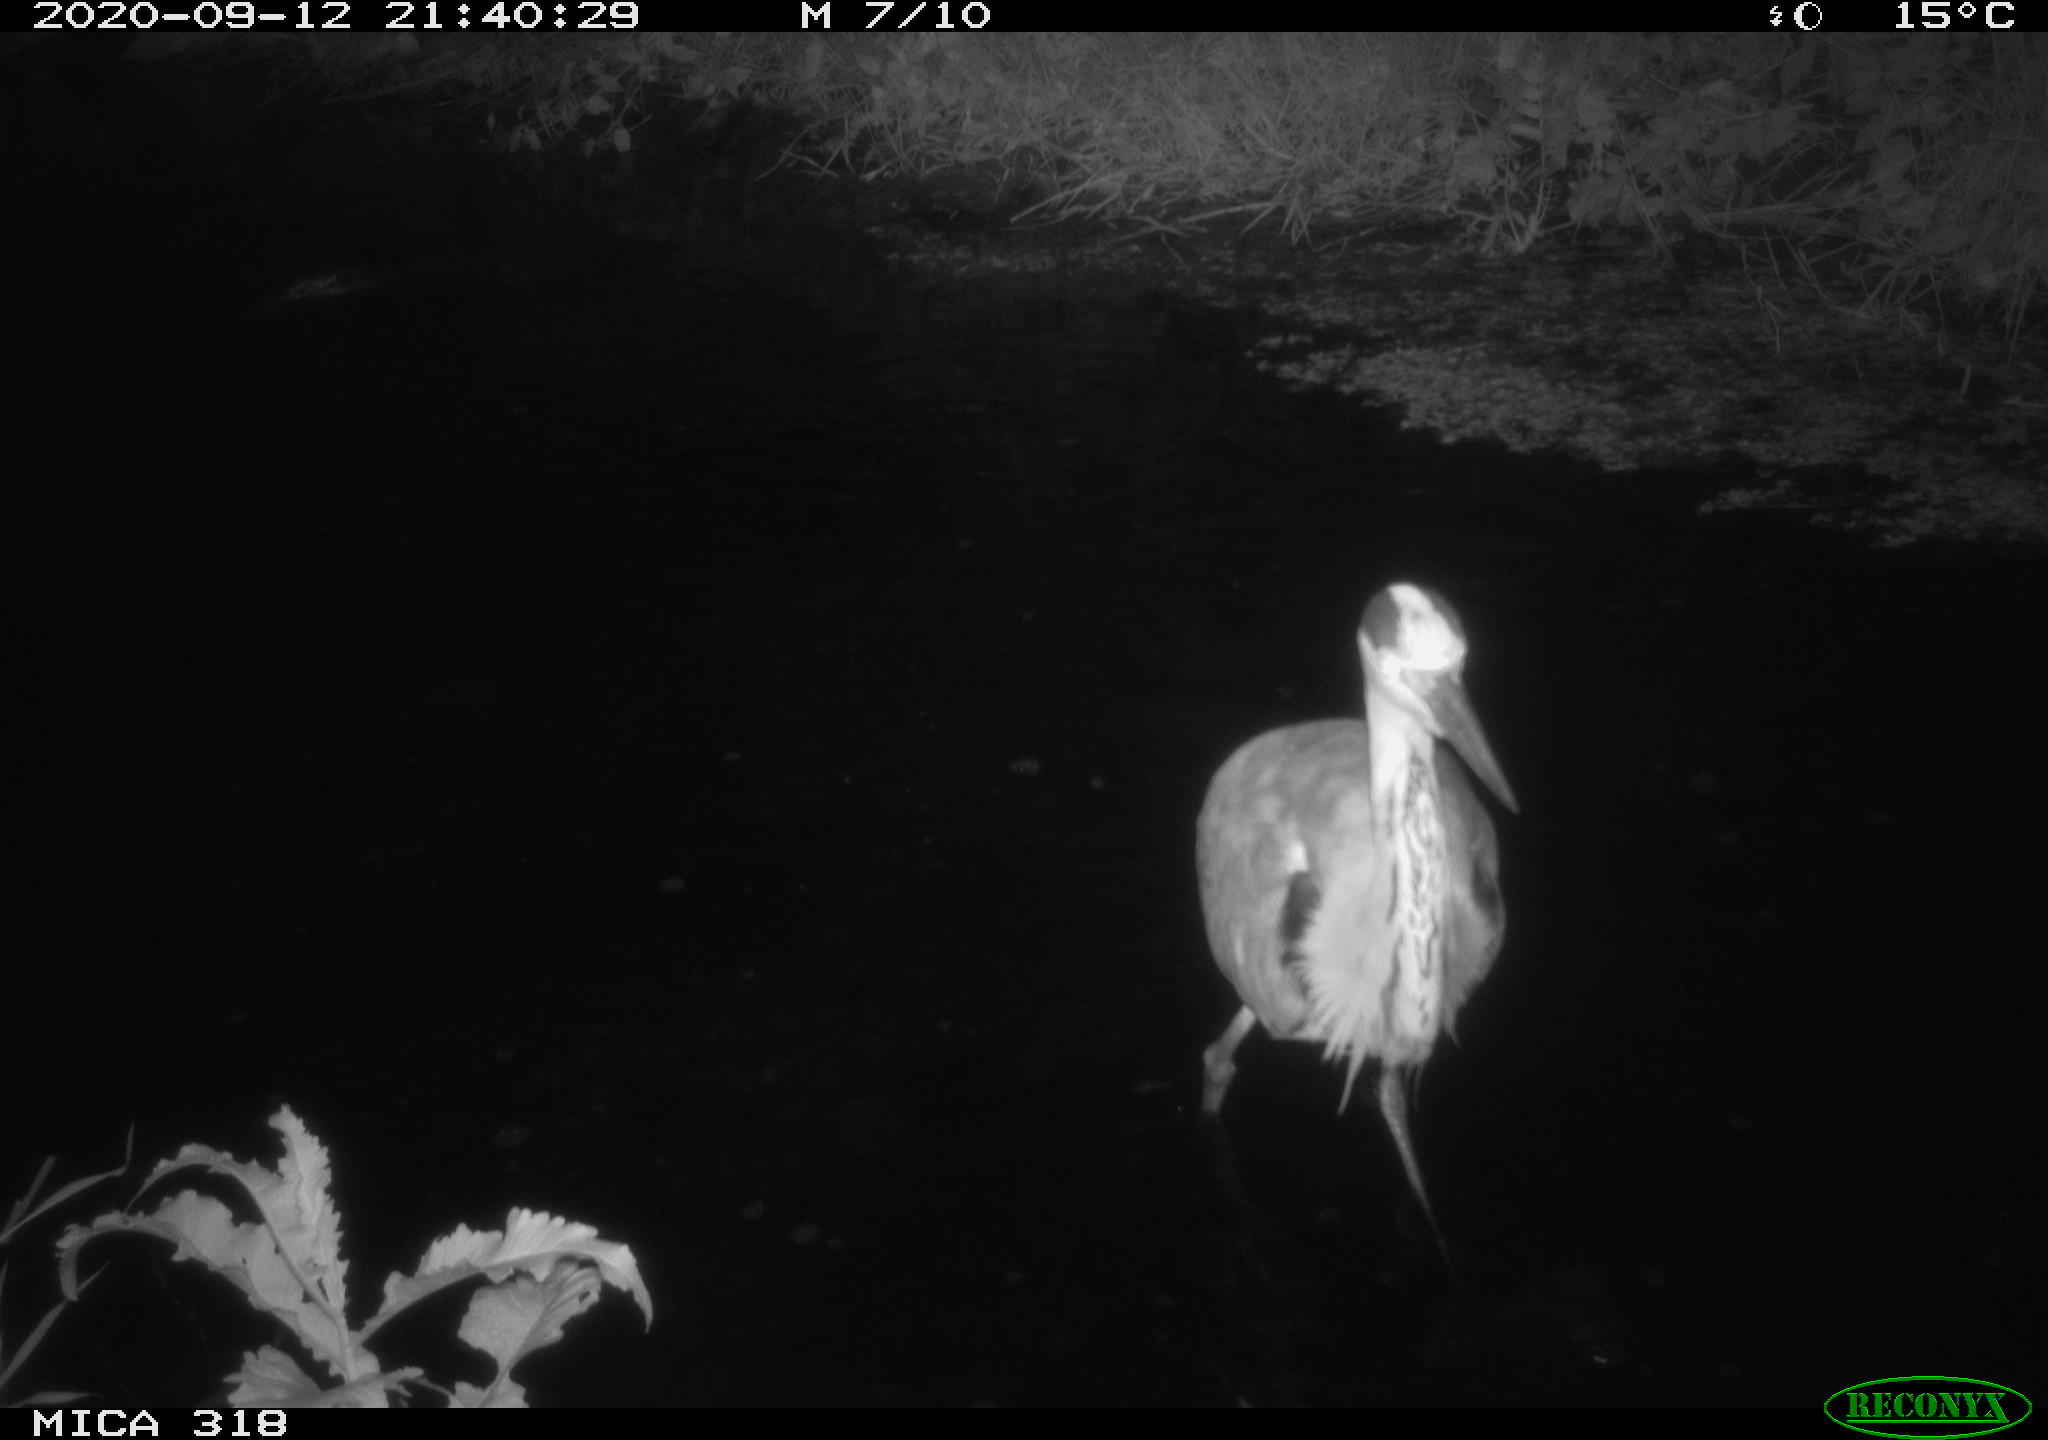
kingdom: Animalia
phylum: Chordata
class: Aves
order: Pelecaniformes
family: Ardeidae
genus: Ardea
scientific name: Ardea
